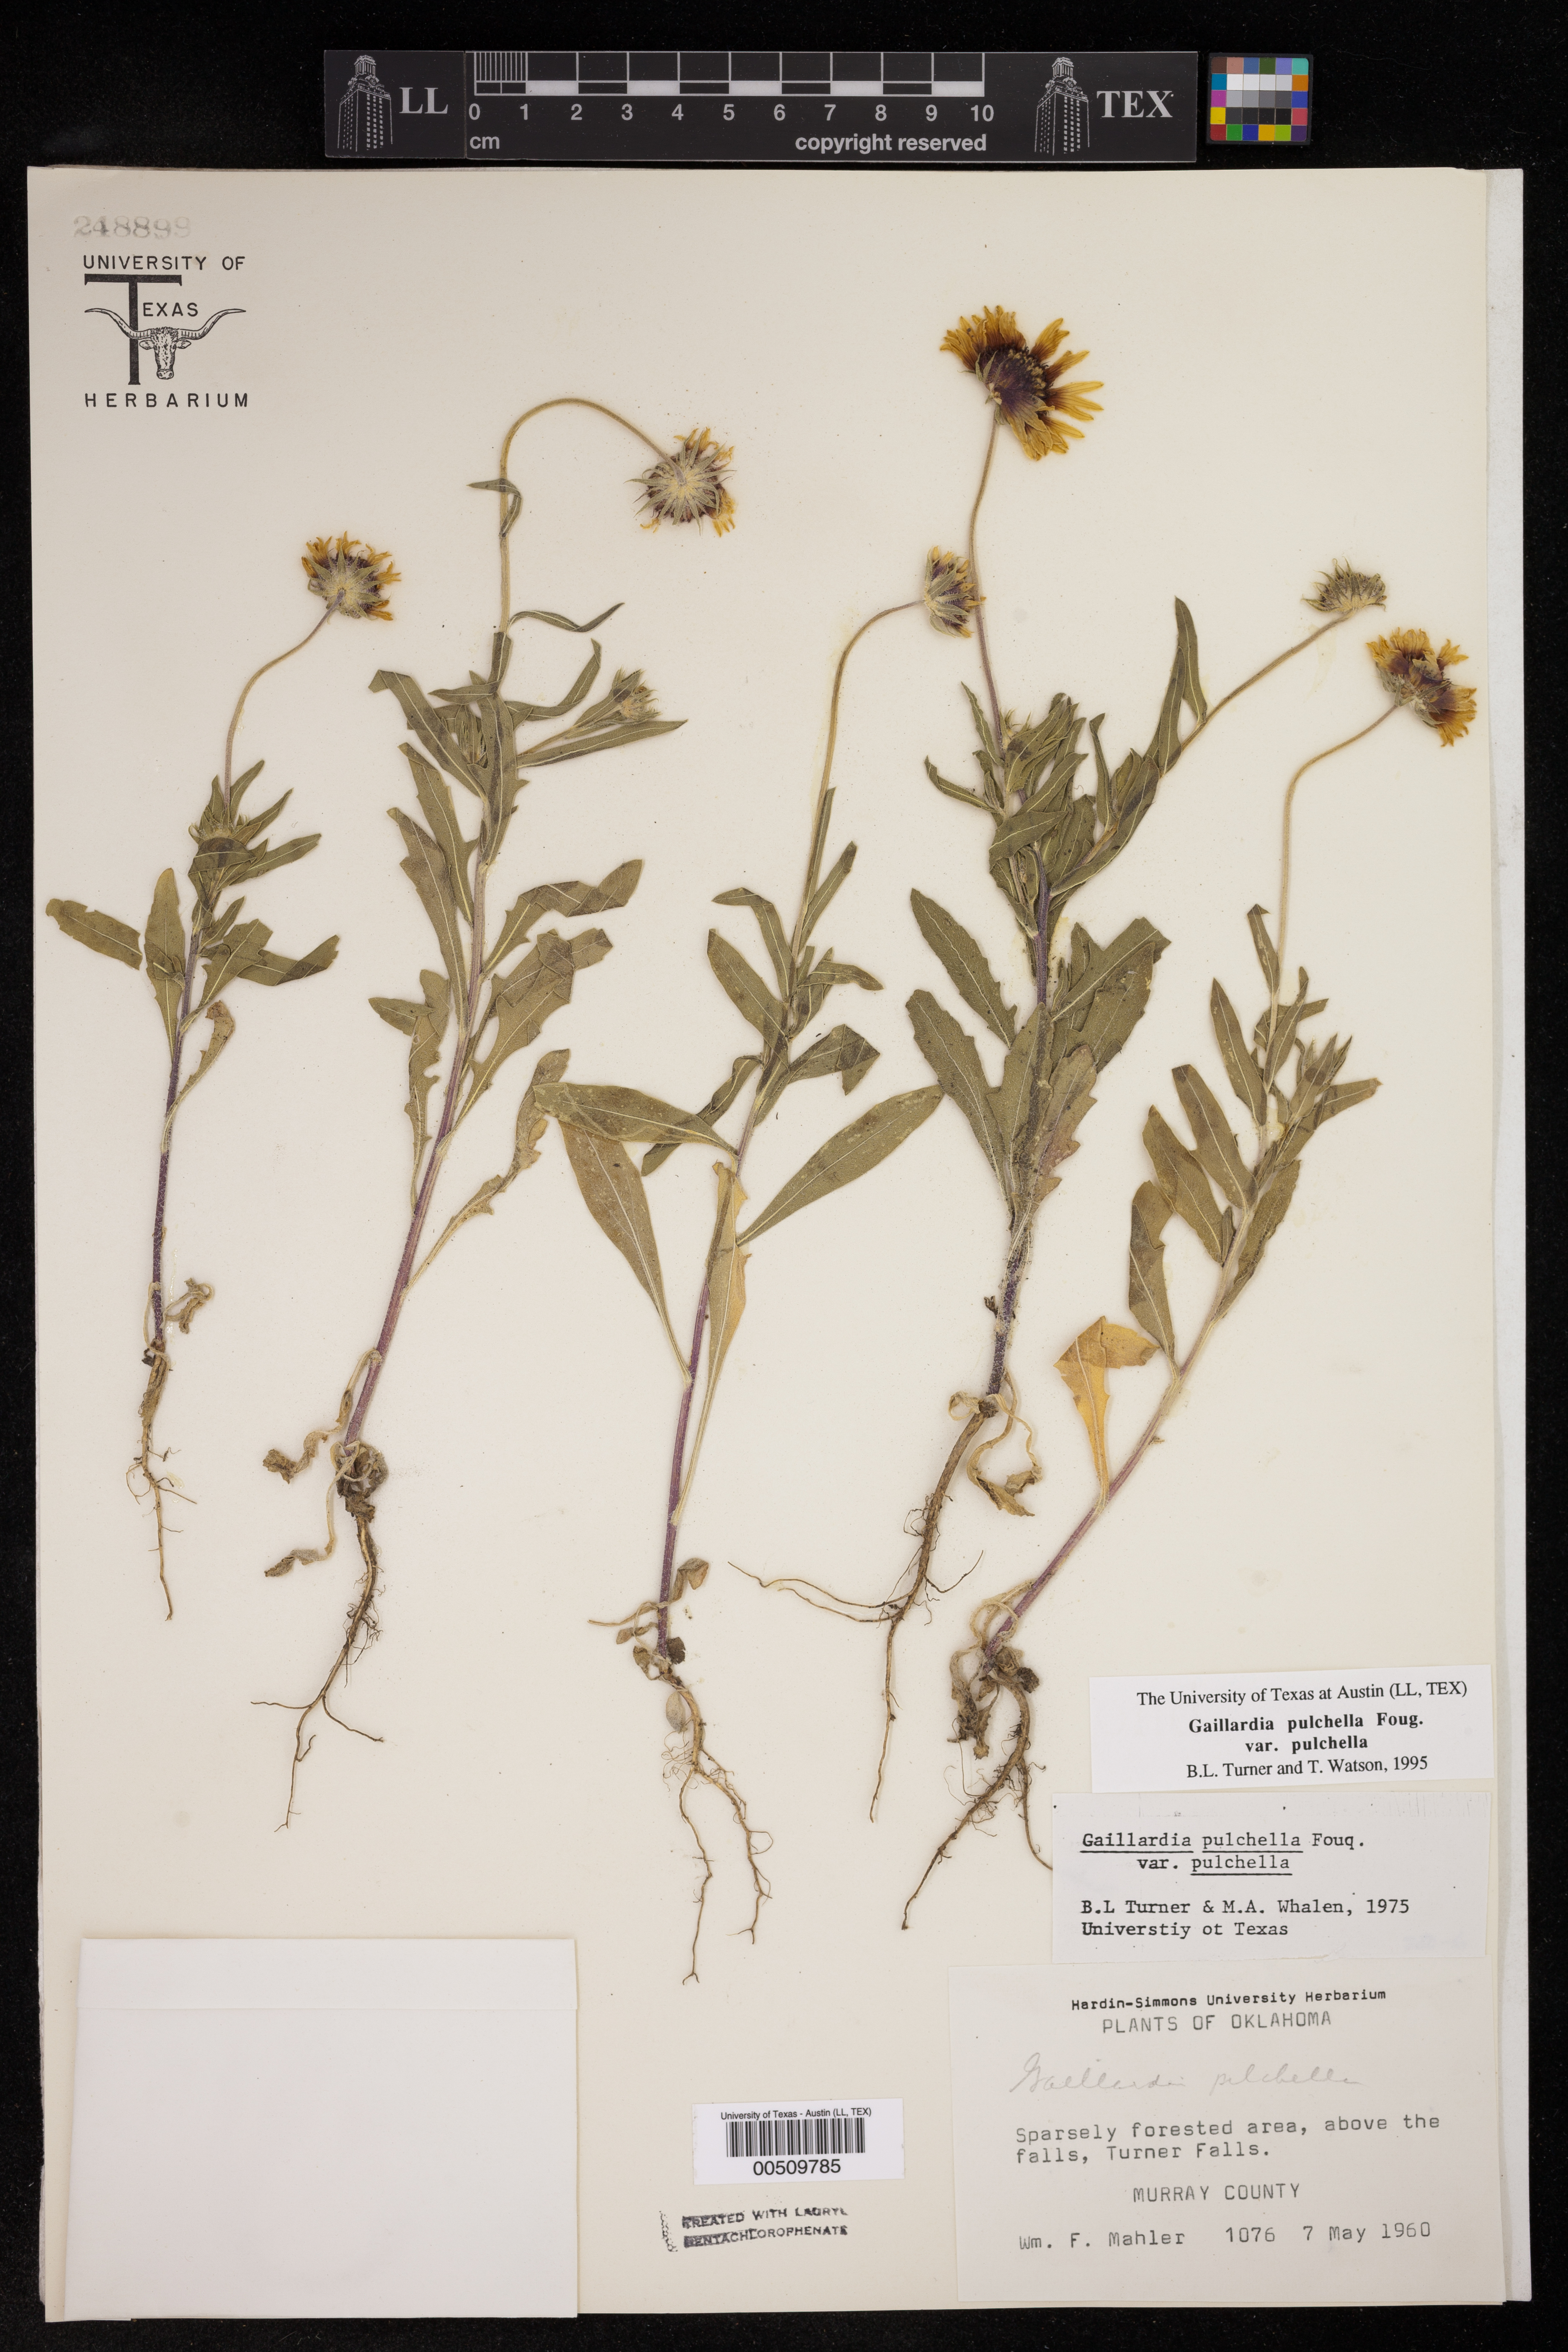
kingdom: Plantae
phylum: Tracheophyta
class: Magnoliopsida
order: Asterales
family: Asteraceae
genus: Gaillardia
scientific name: Gaillardia pulchella
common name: Firewheel
